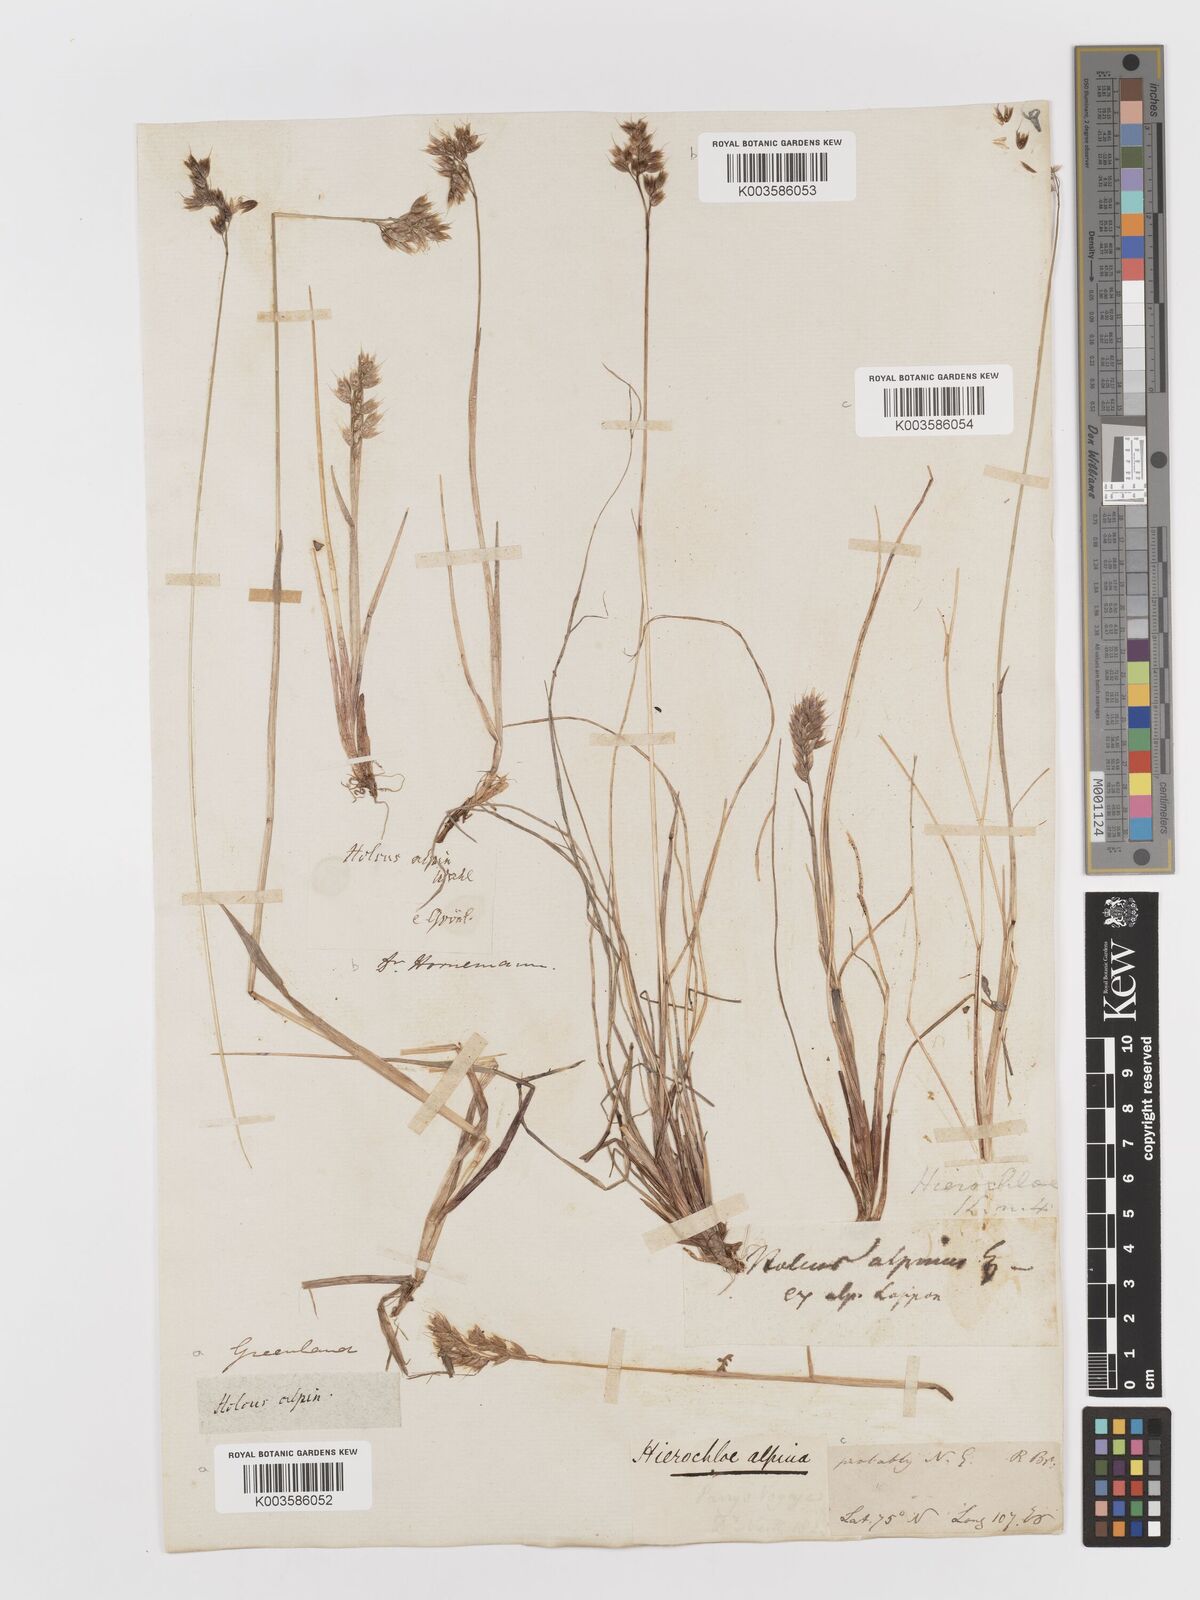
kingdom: Plantae
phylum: Tracheophyta
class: Liliopsida
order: Poales
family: Poaceae
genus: Anthoxanthum
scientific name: Anthoxanthum monticola
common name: Alpine sweetgrass
